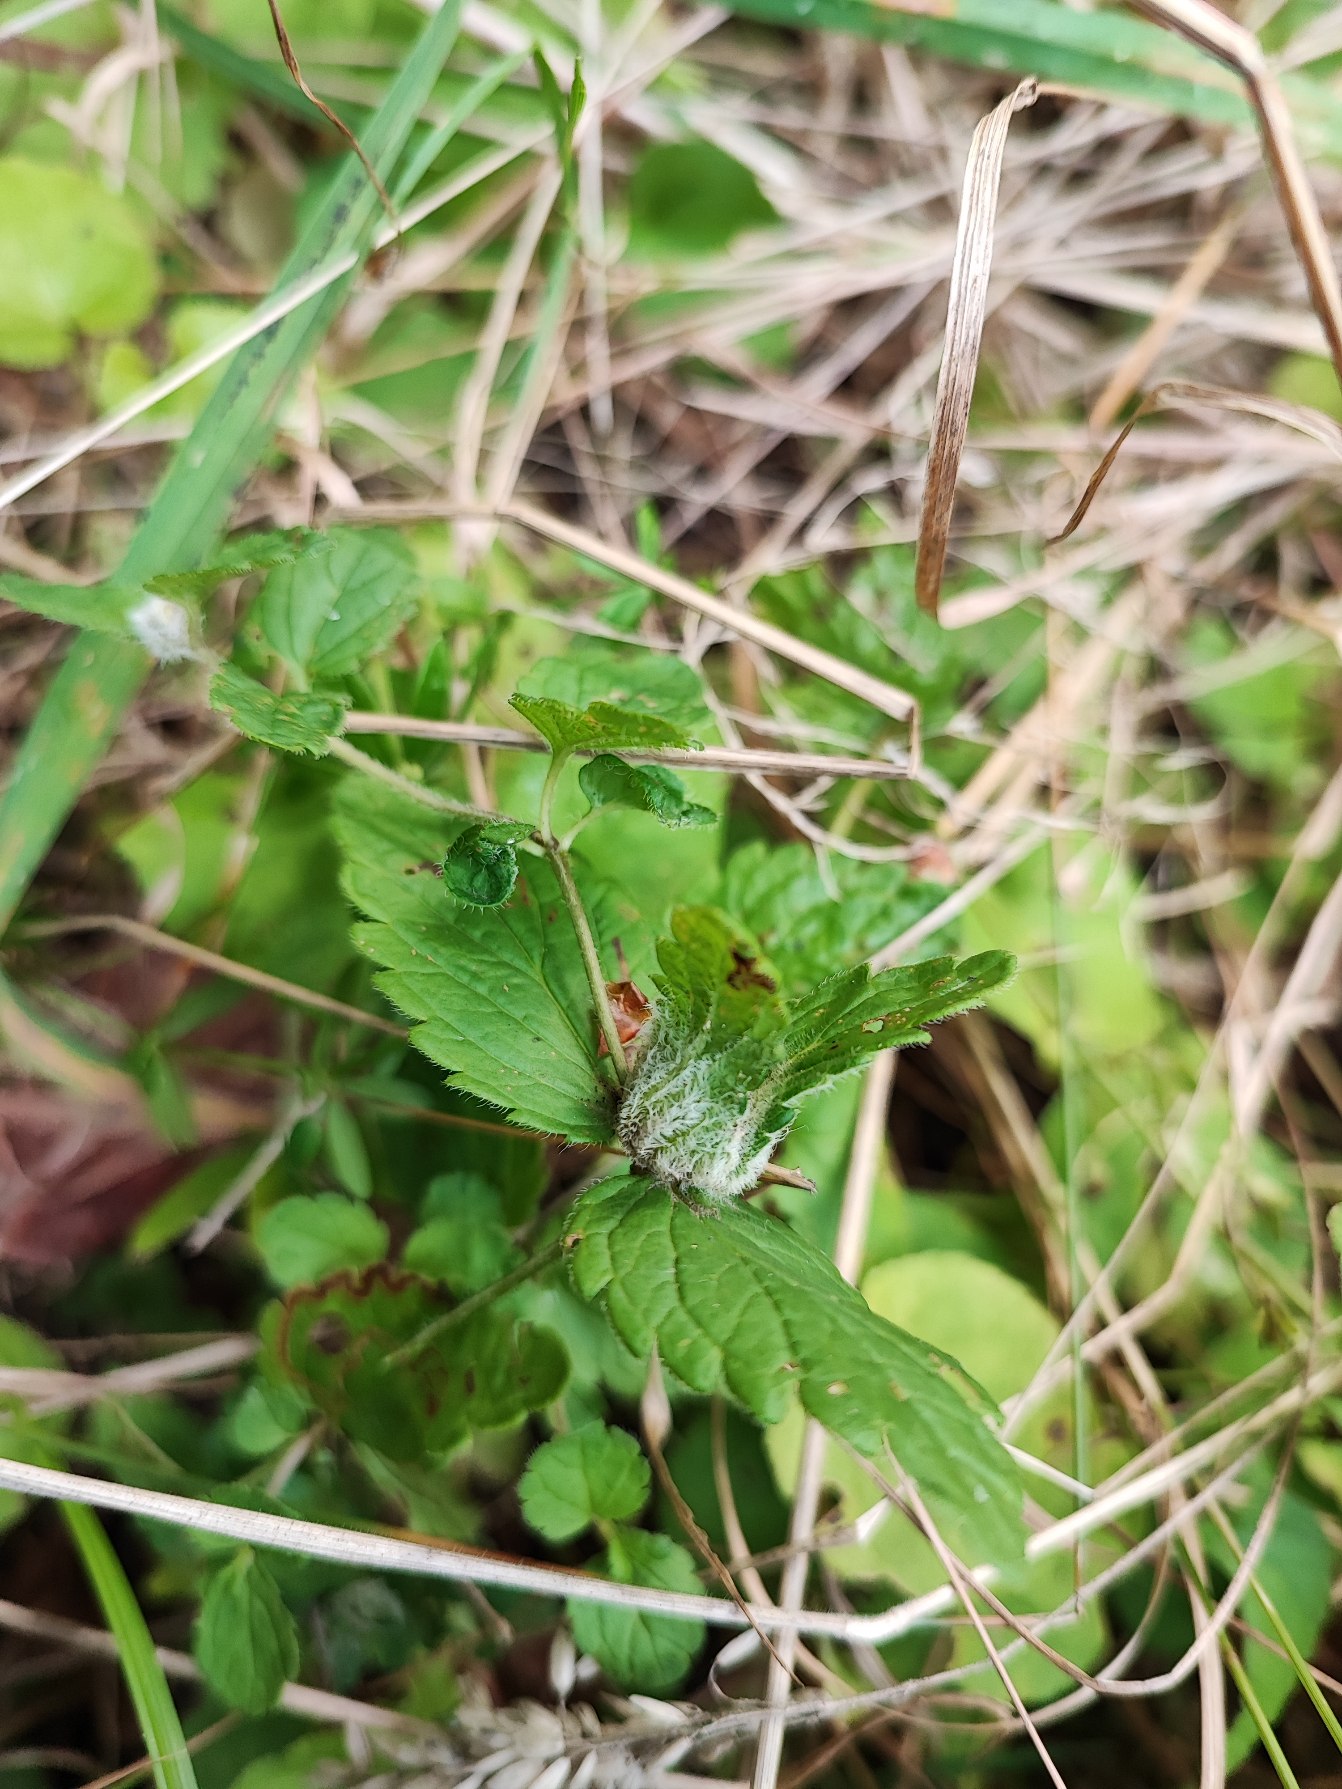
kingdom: Animalia
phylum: Arthropoda
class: Insecta
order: Diptera
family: Cecidomyiidae
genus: Jaapiella
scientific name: Jaapiella veronicae
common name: Ærenprisgalmyg
